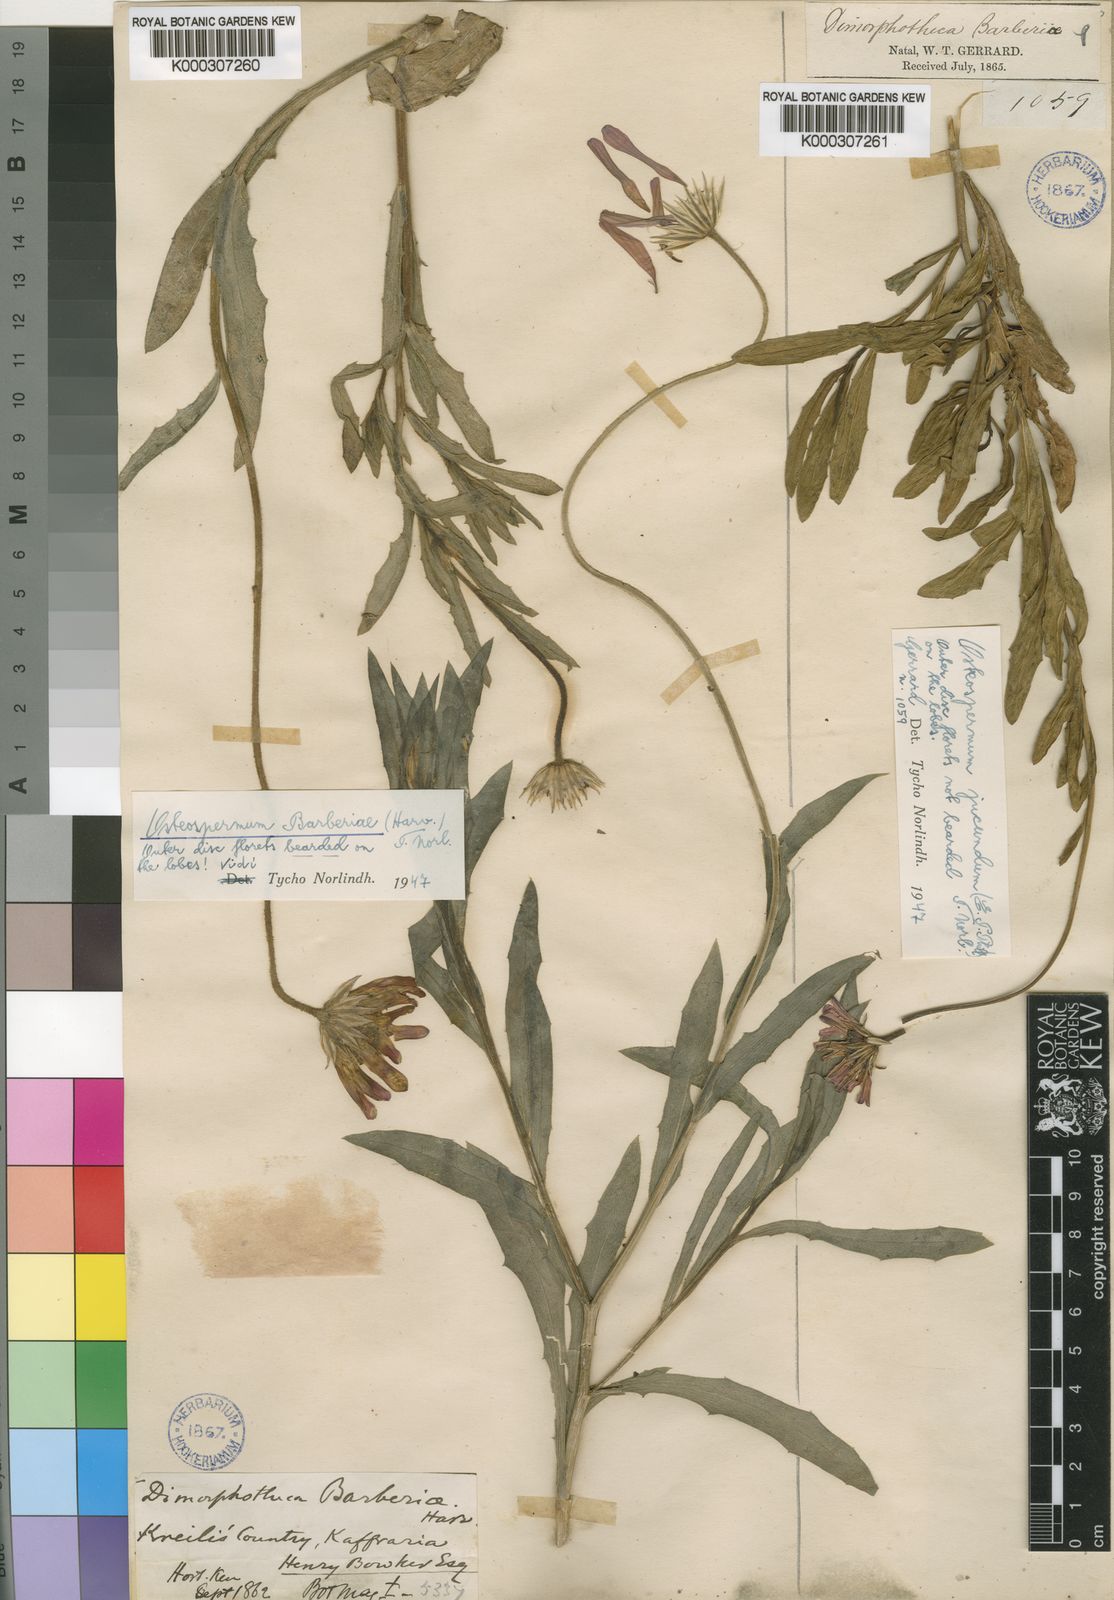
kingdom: Plantae
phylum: Tracheophyta
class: Magnoliopsida
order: Asterales
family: Asteraceae
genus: Dimorphotheca
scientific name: Dimorphotheca barberae
